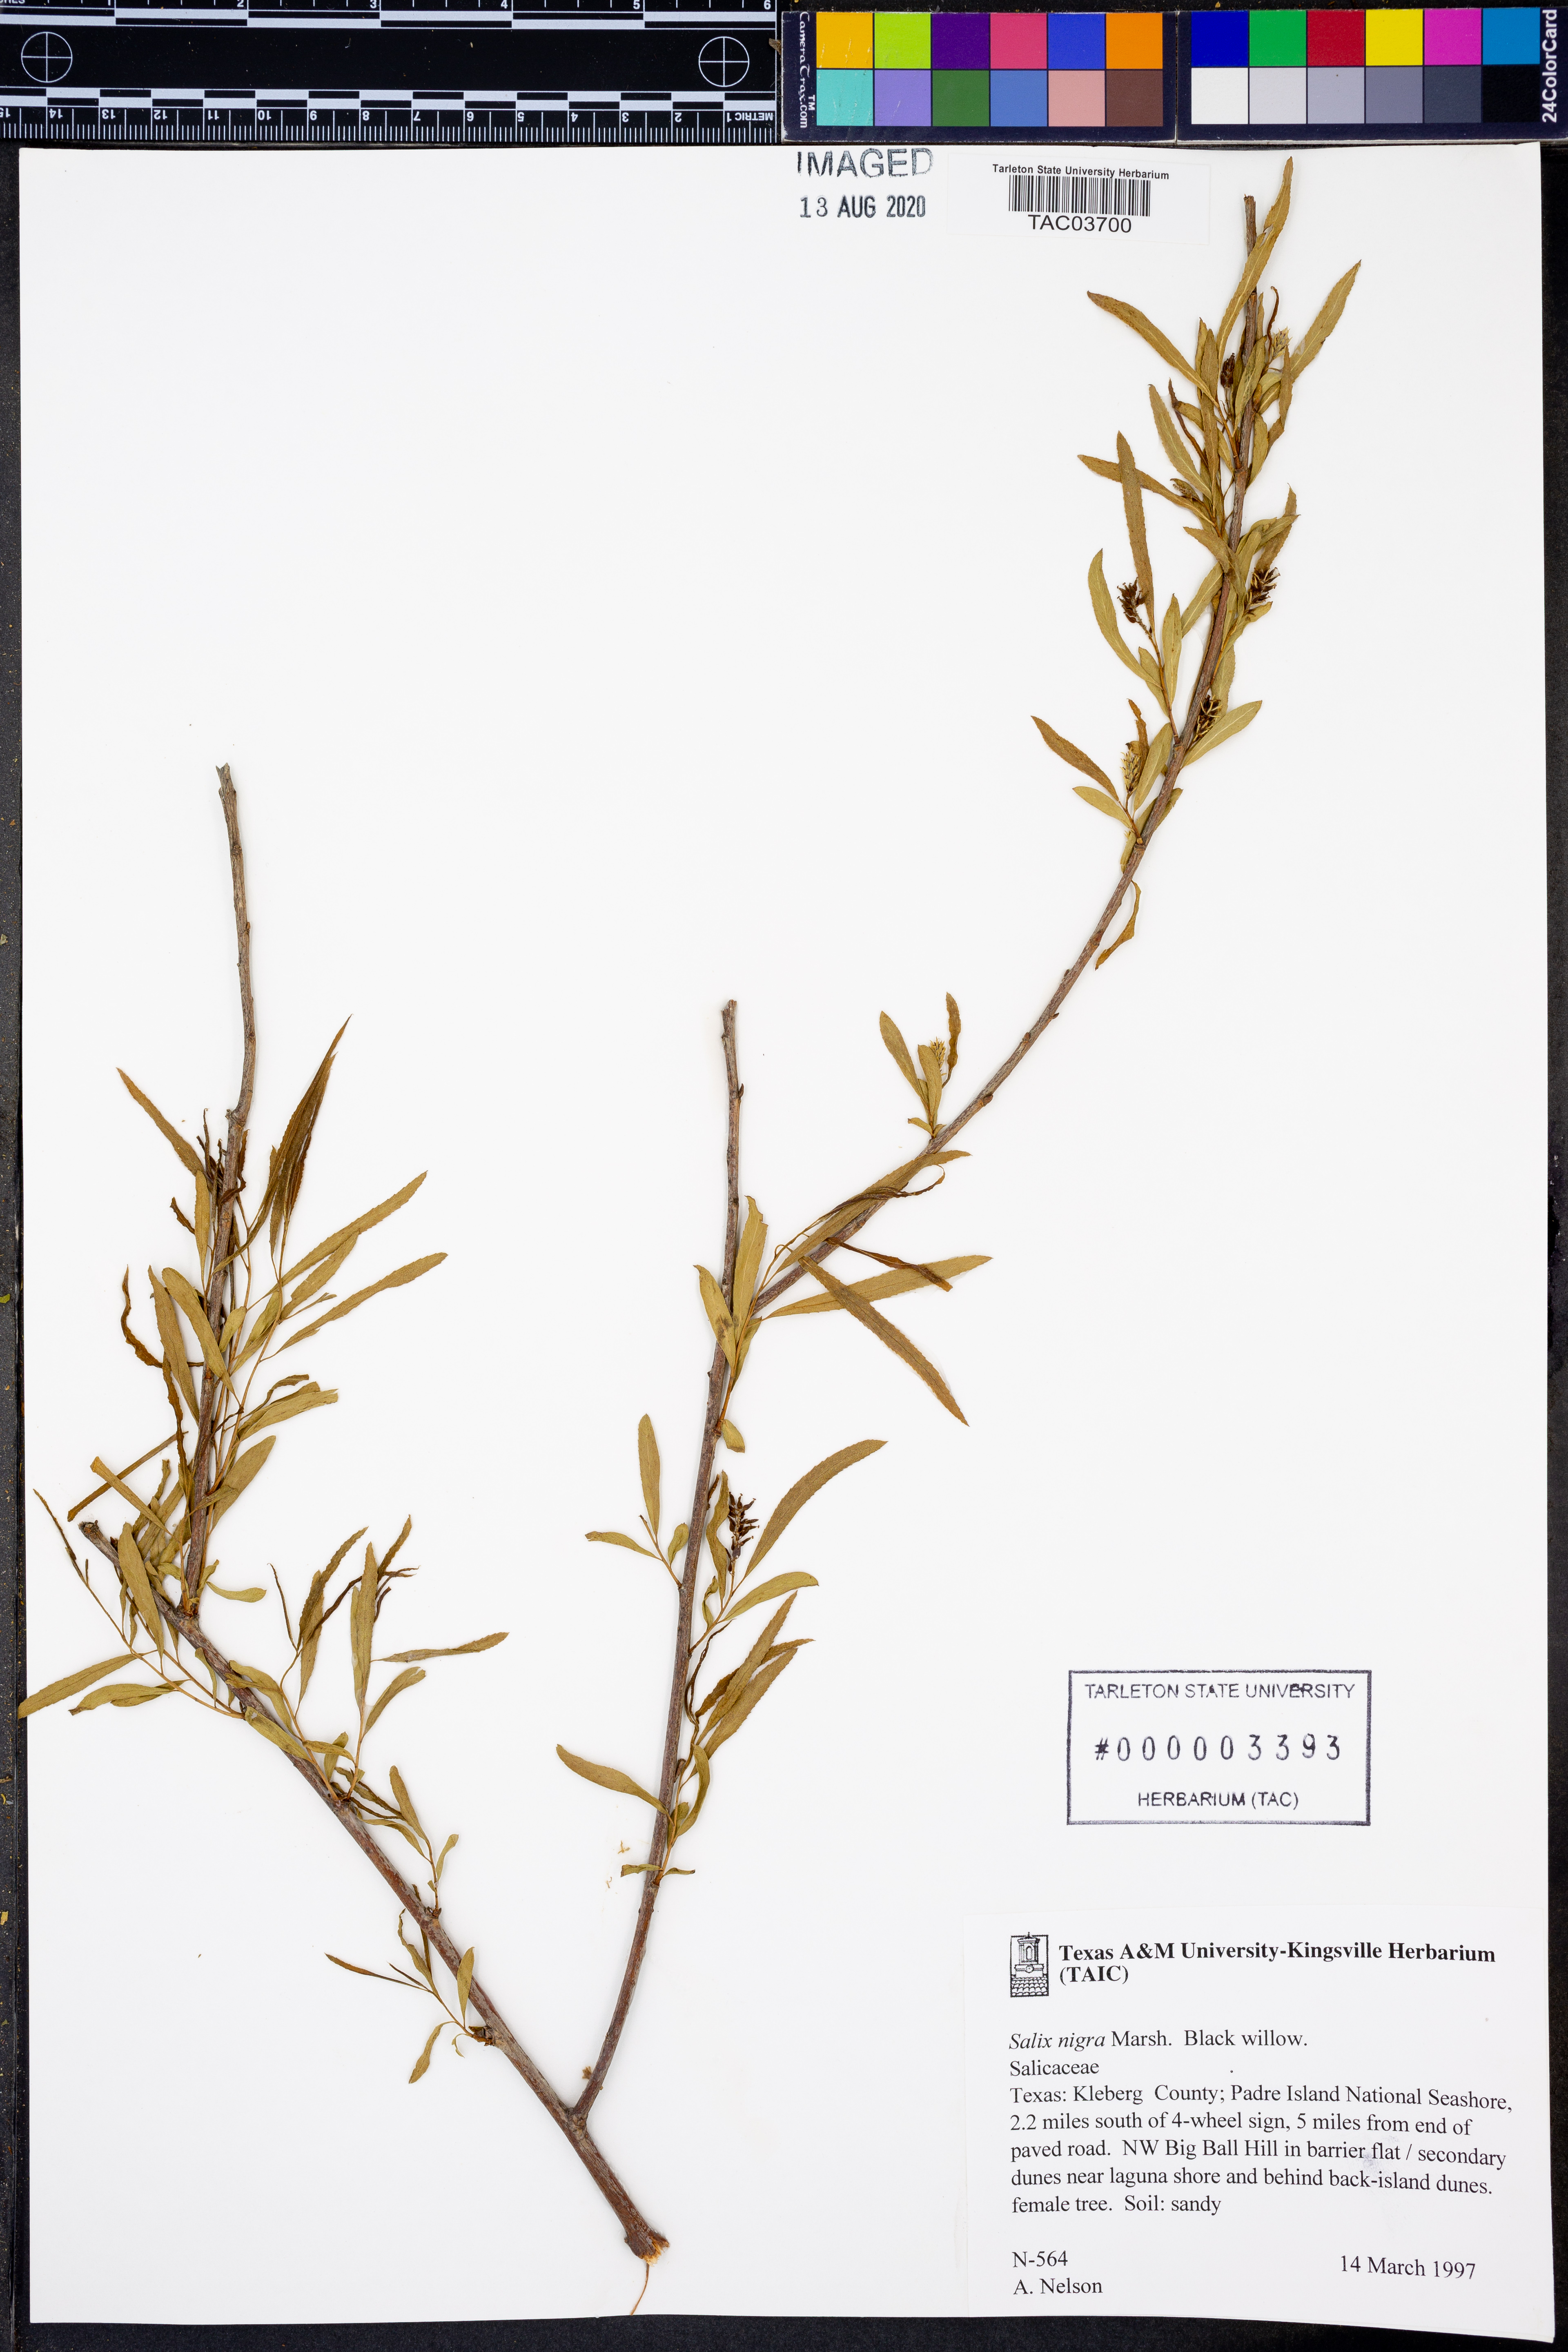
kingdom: Plantae
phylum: Tracheophyta
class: Magnoliopsida
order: Malpighiales
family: Salicaceae
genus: Salix
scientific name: Salix nigra
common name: Black willow
